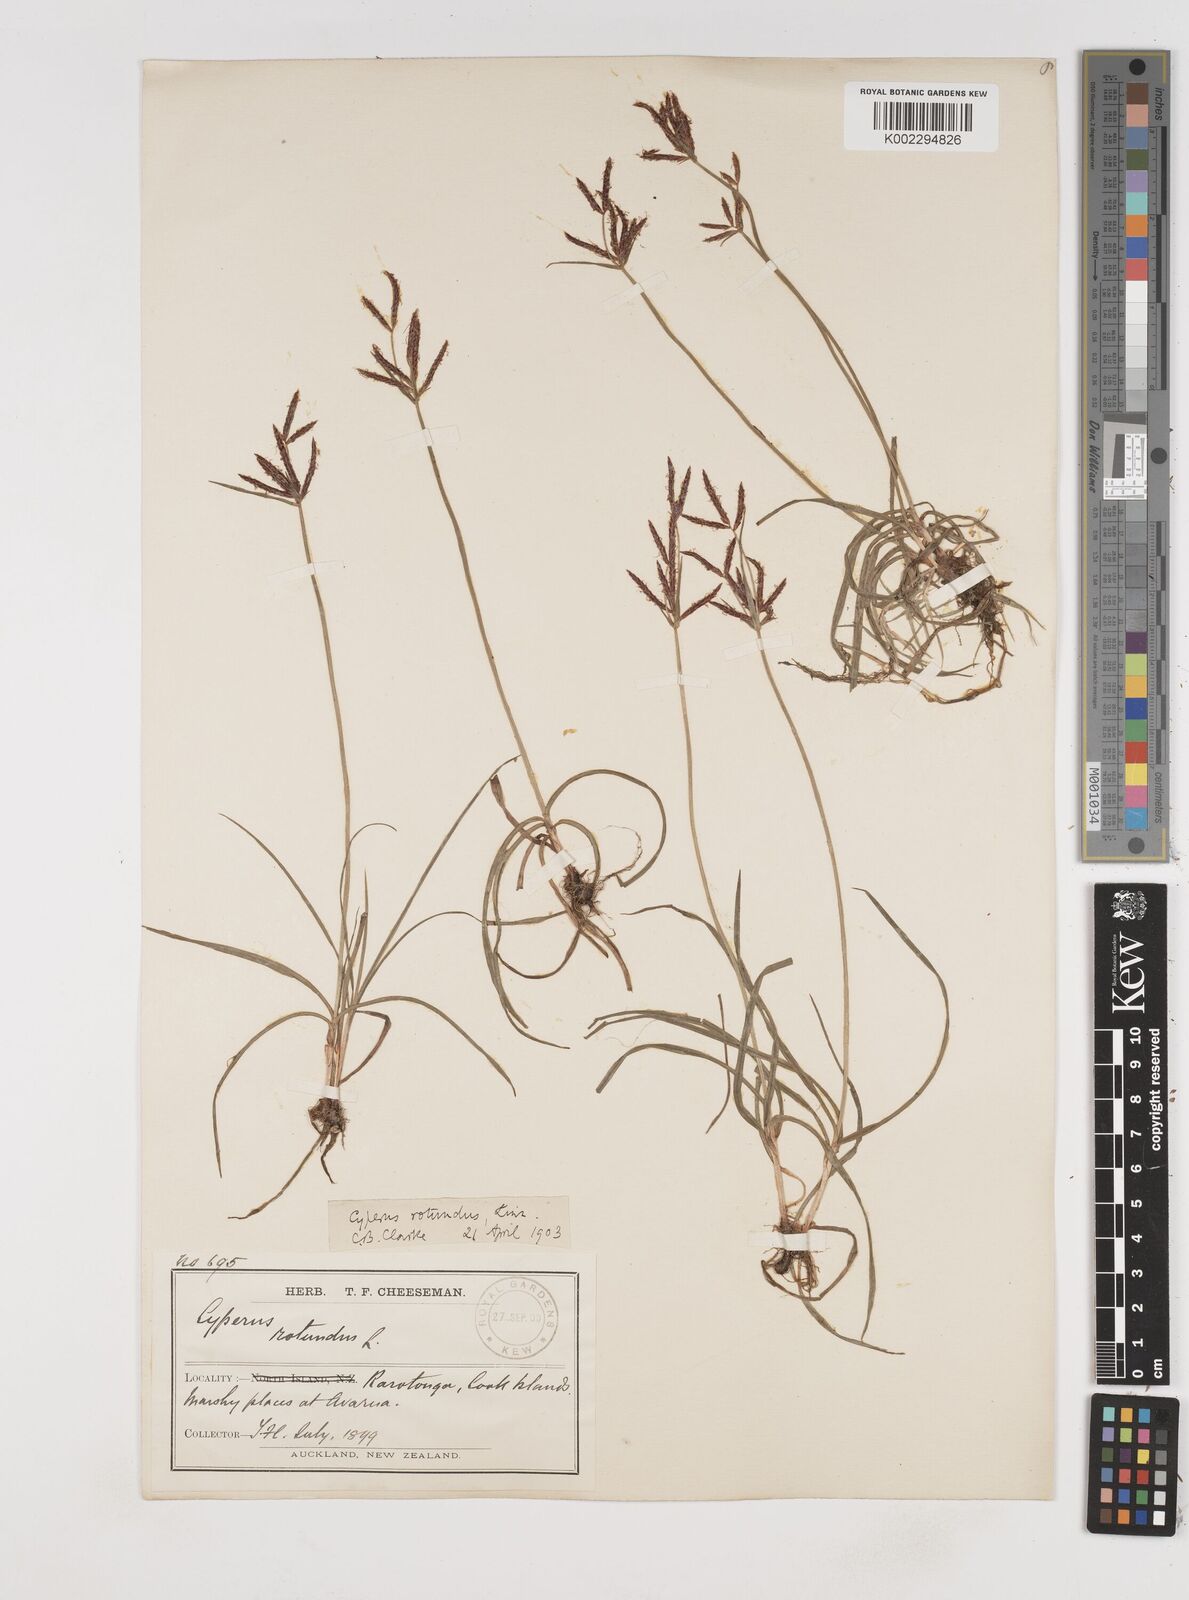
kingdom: Plantae
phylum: Tracheophyta
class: Liliopsida
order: Poales
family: Cyperaceae
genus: Cyperus
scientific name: Cyperus rotundus
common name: Nutgrass
